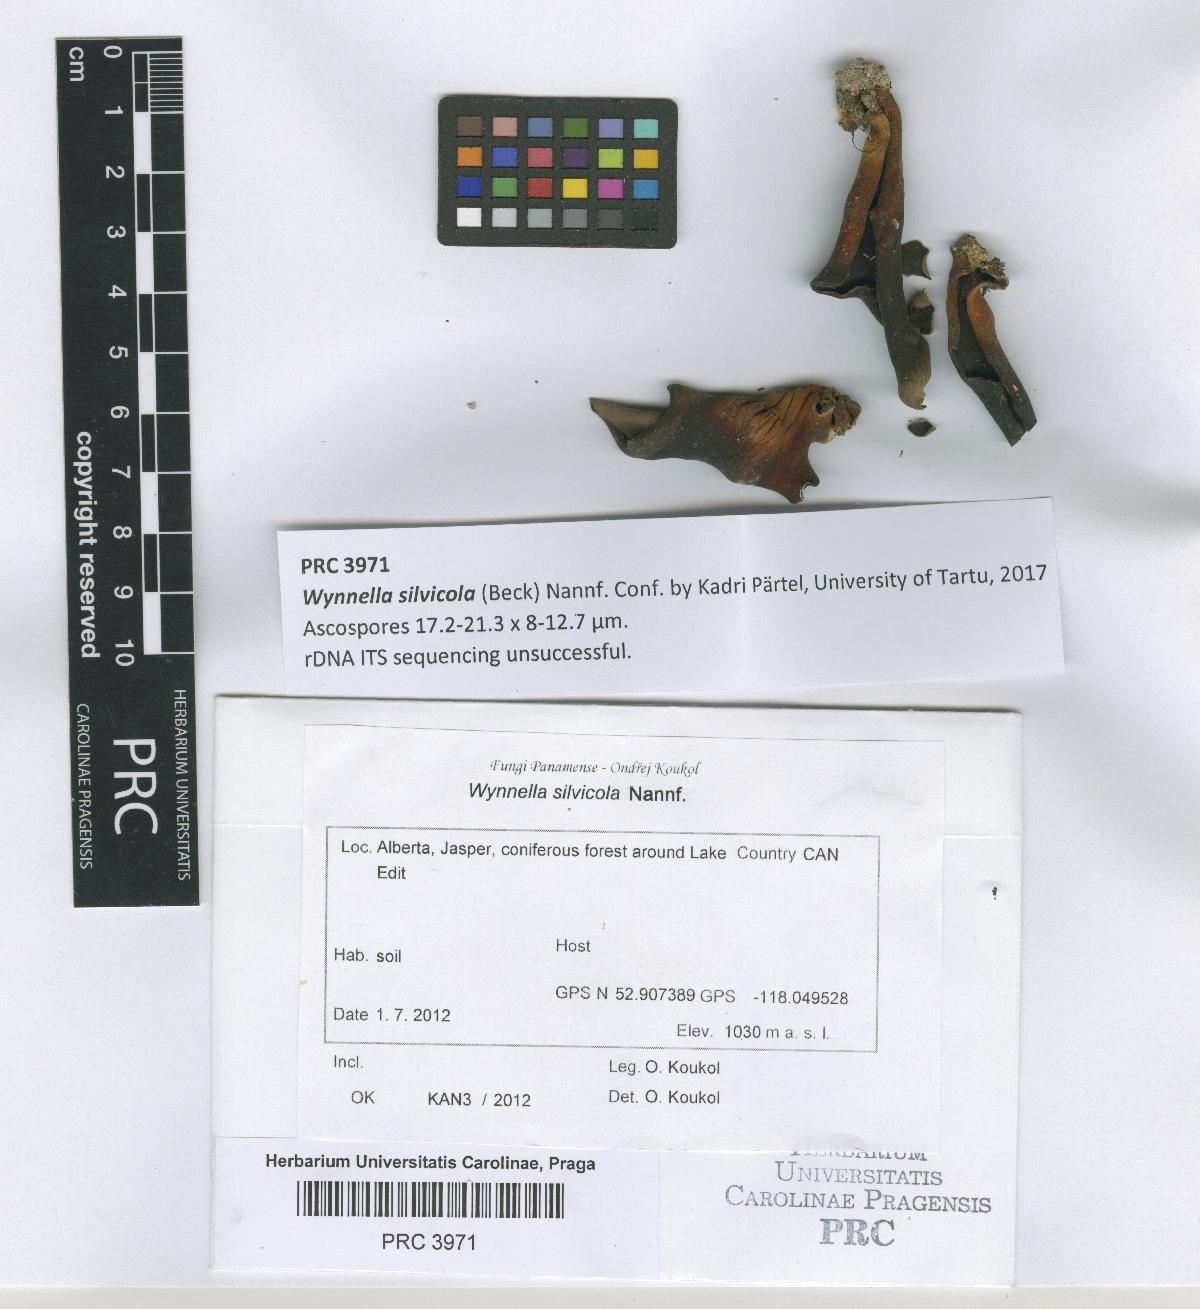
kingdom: Fungi
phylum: Ascomycota
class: Pezizomycetes
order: Pezizales
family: Helvellaceae
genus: Wynnella
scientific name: Wynnella silvicola
